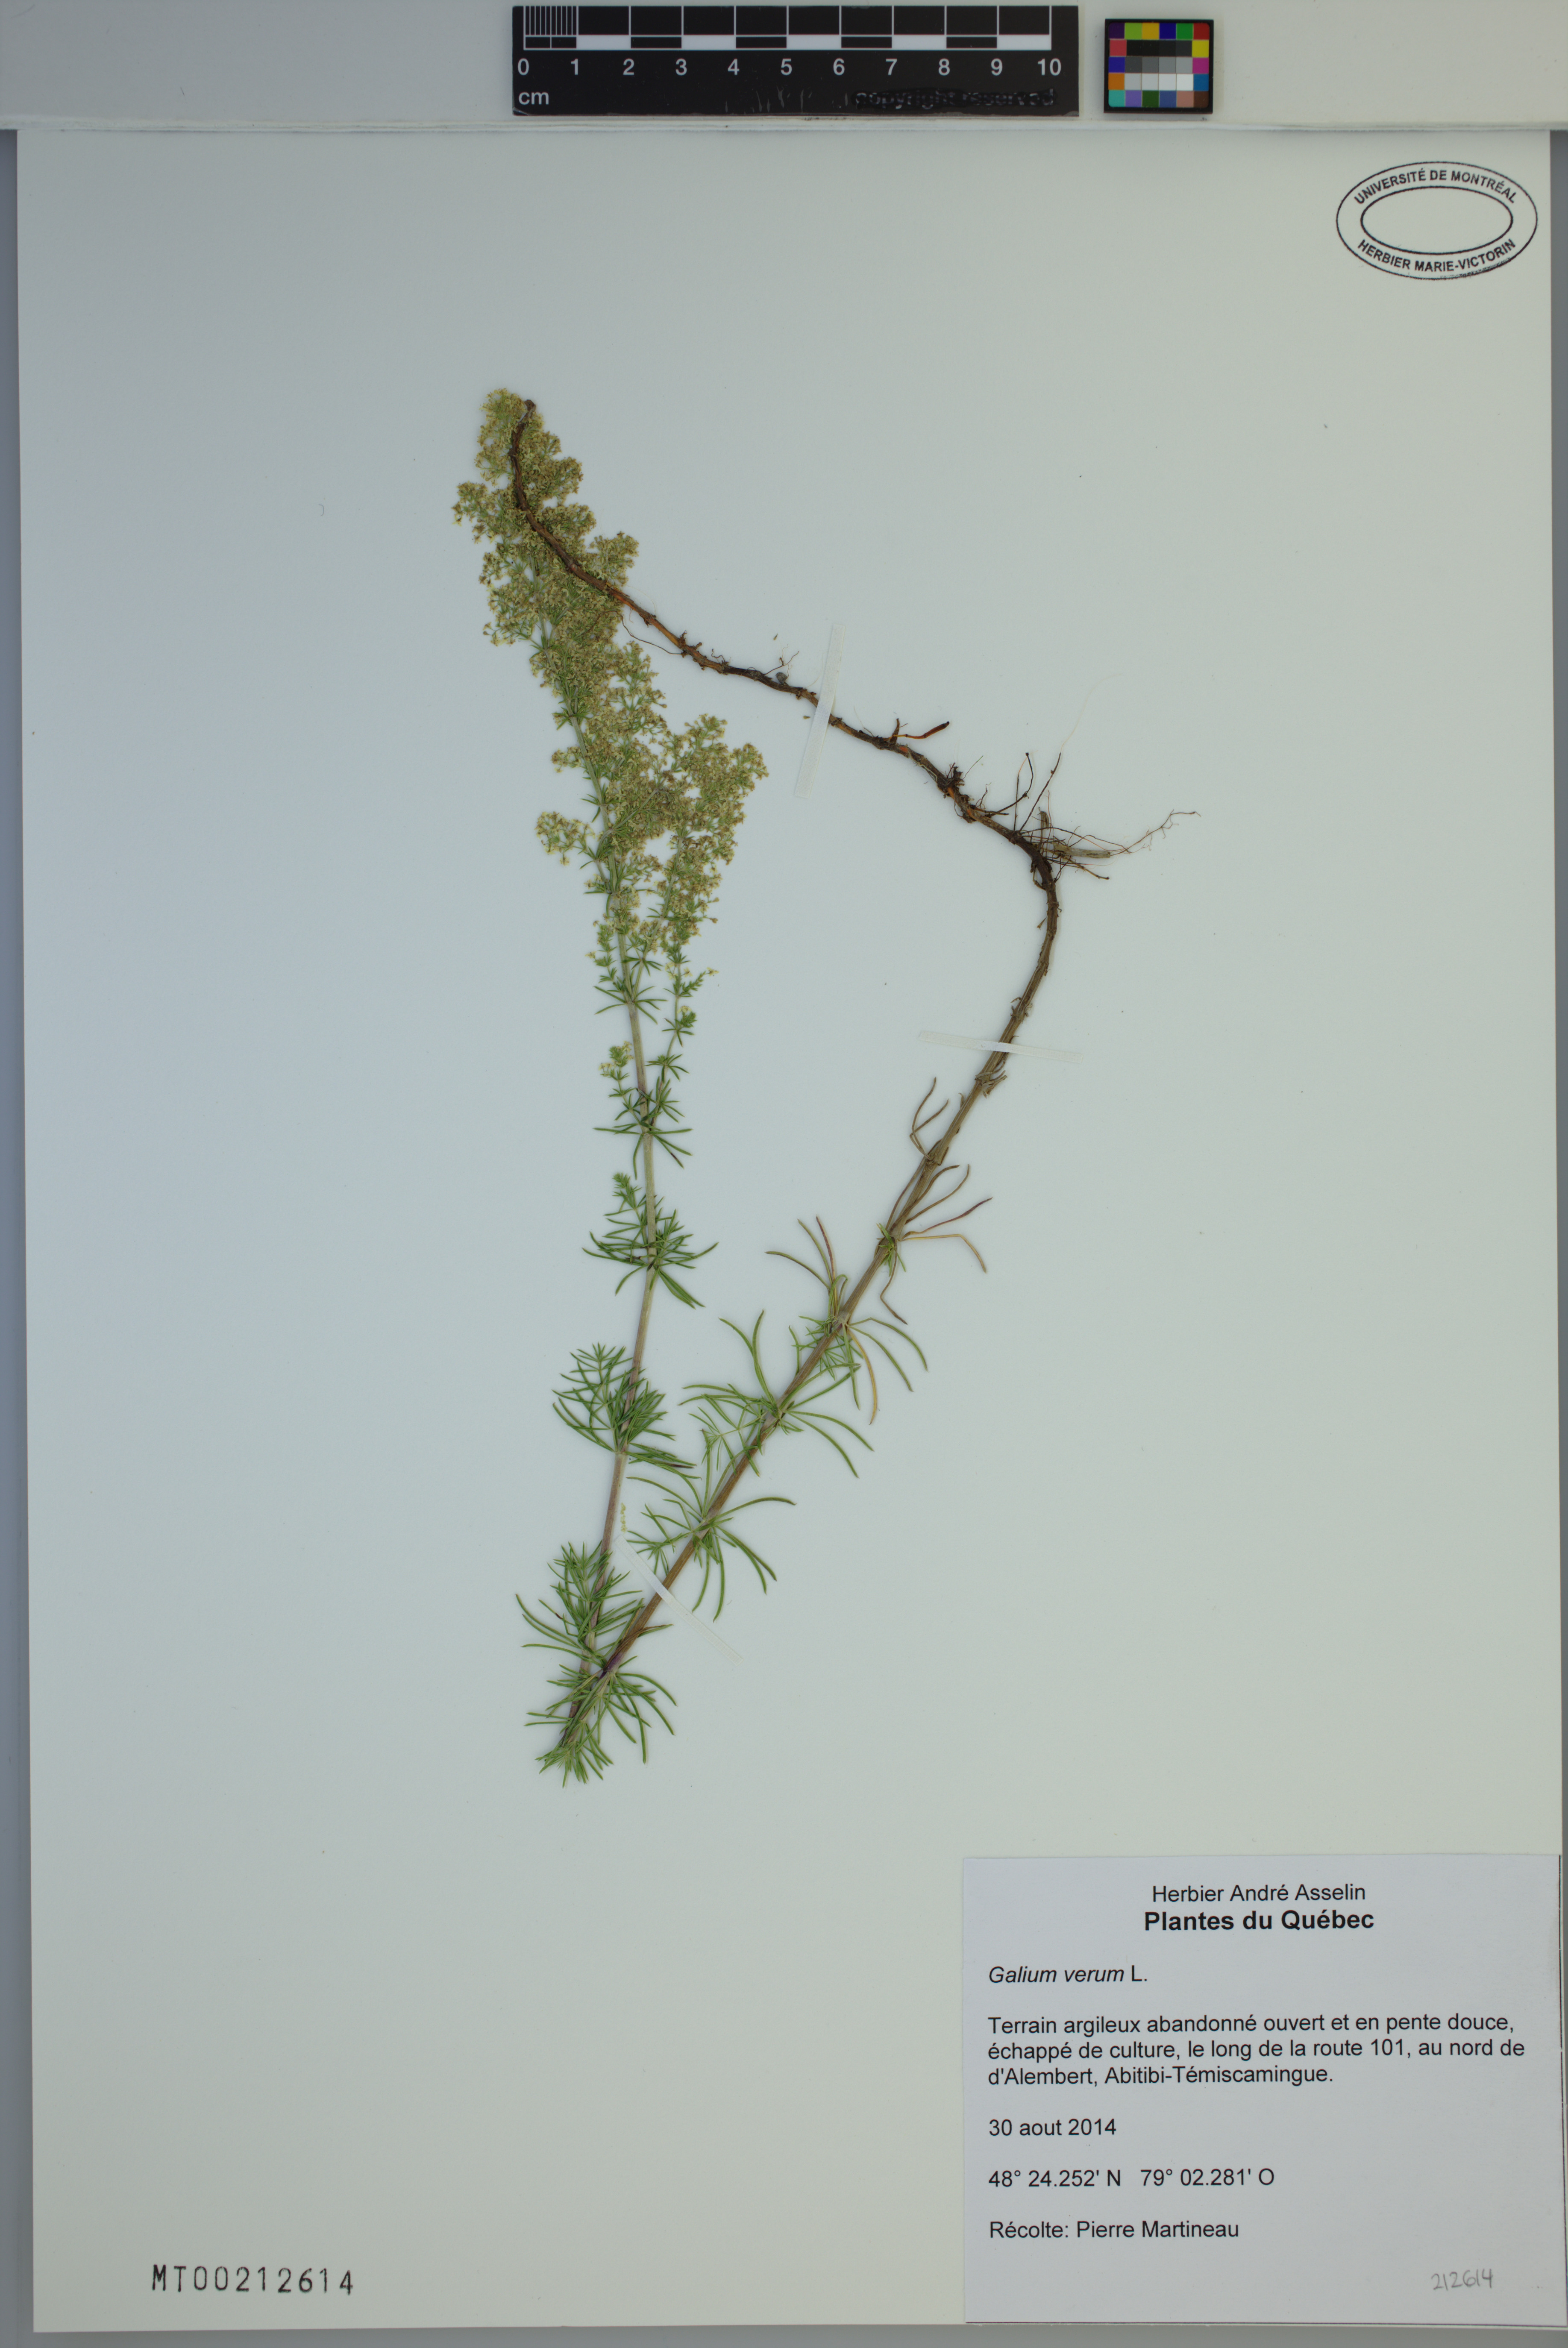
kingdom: Plantae
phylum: Tracheophyta
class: Magnoliopsida
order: Gentianales
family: Rubiaceae
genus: Galium
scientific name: Galium verum
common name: Lady's bedstraw
